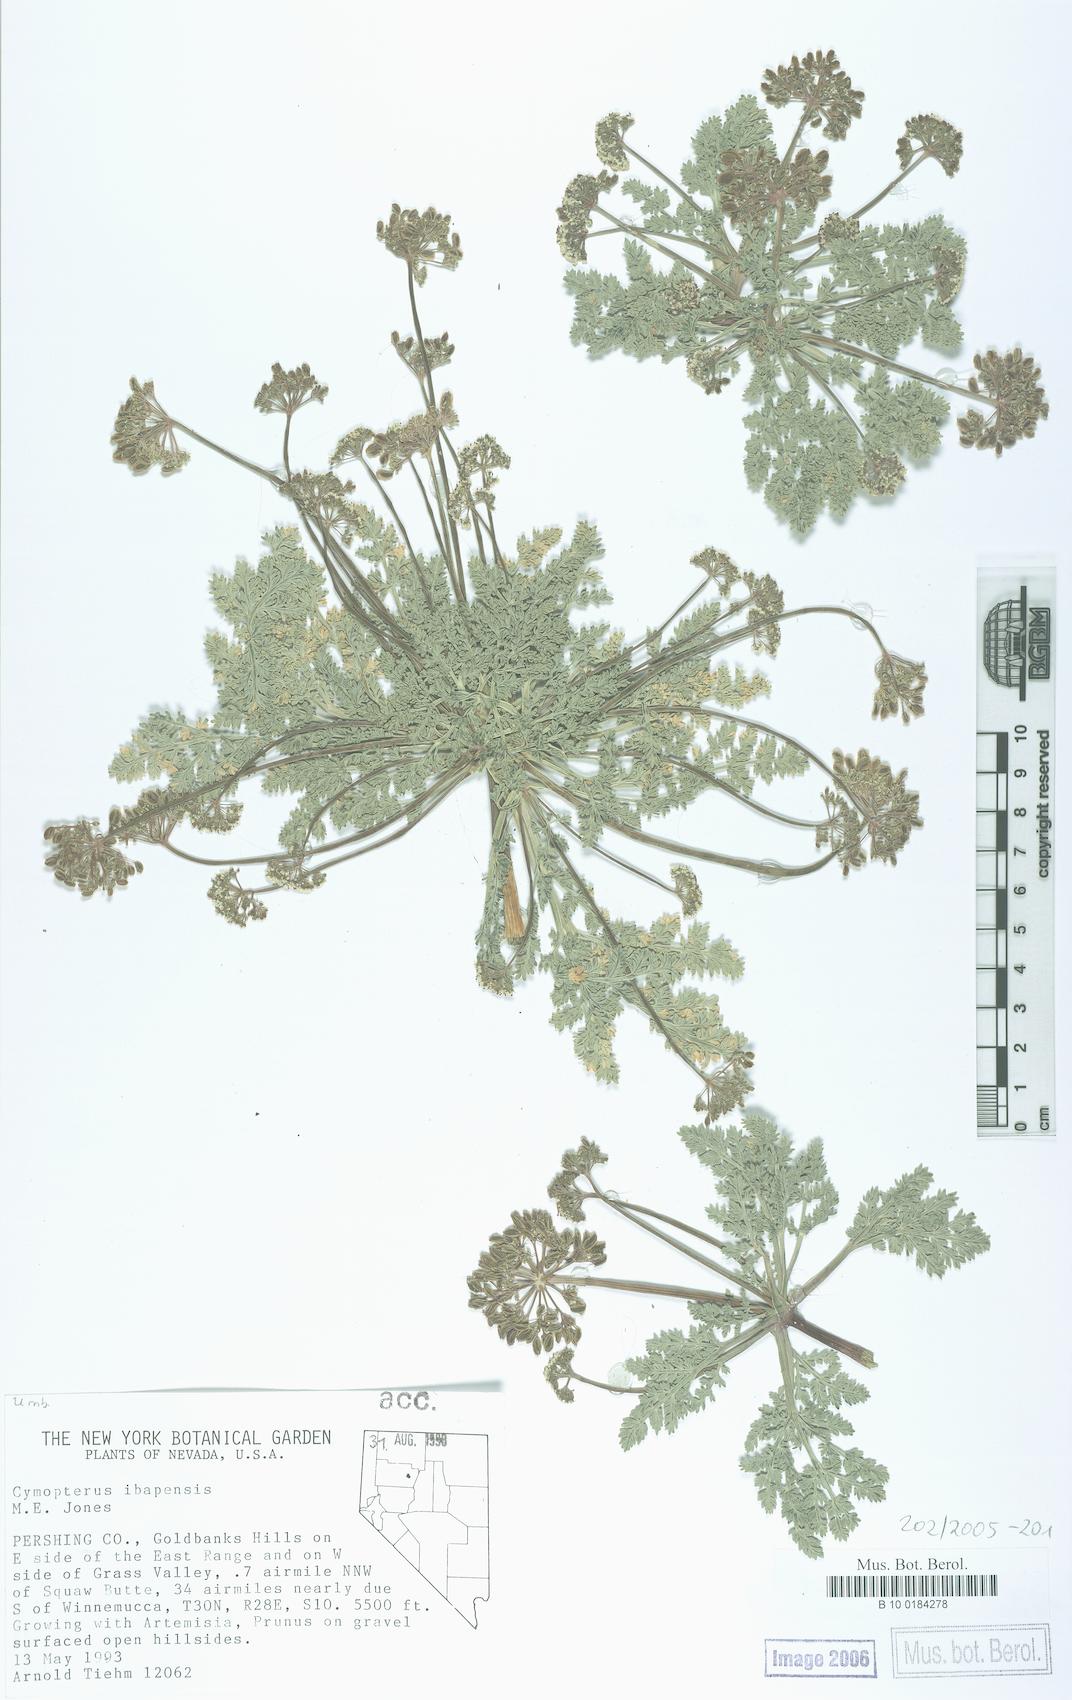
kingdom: Plantae
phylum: Tracheophyta
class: Magnoliopsida
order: Apiales
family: Apiaceae
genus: Aulospermum
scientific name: Aulospermum ibapense
